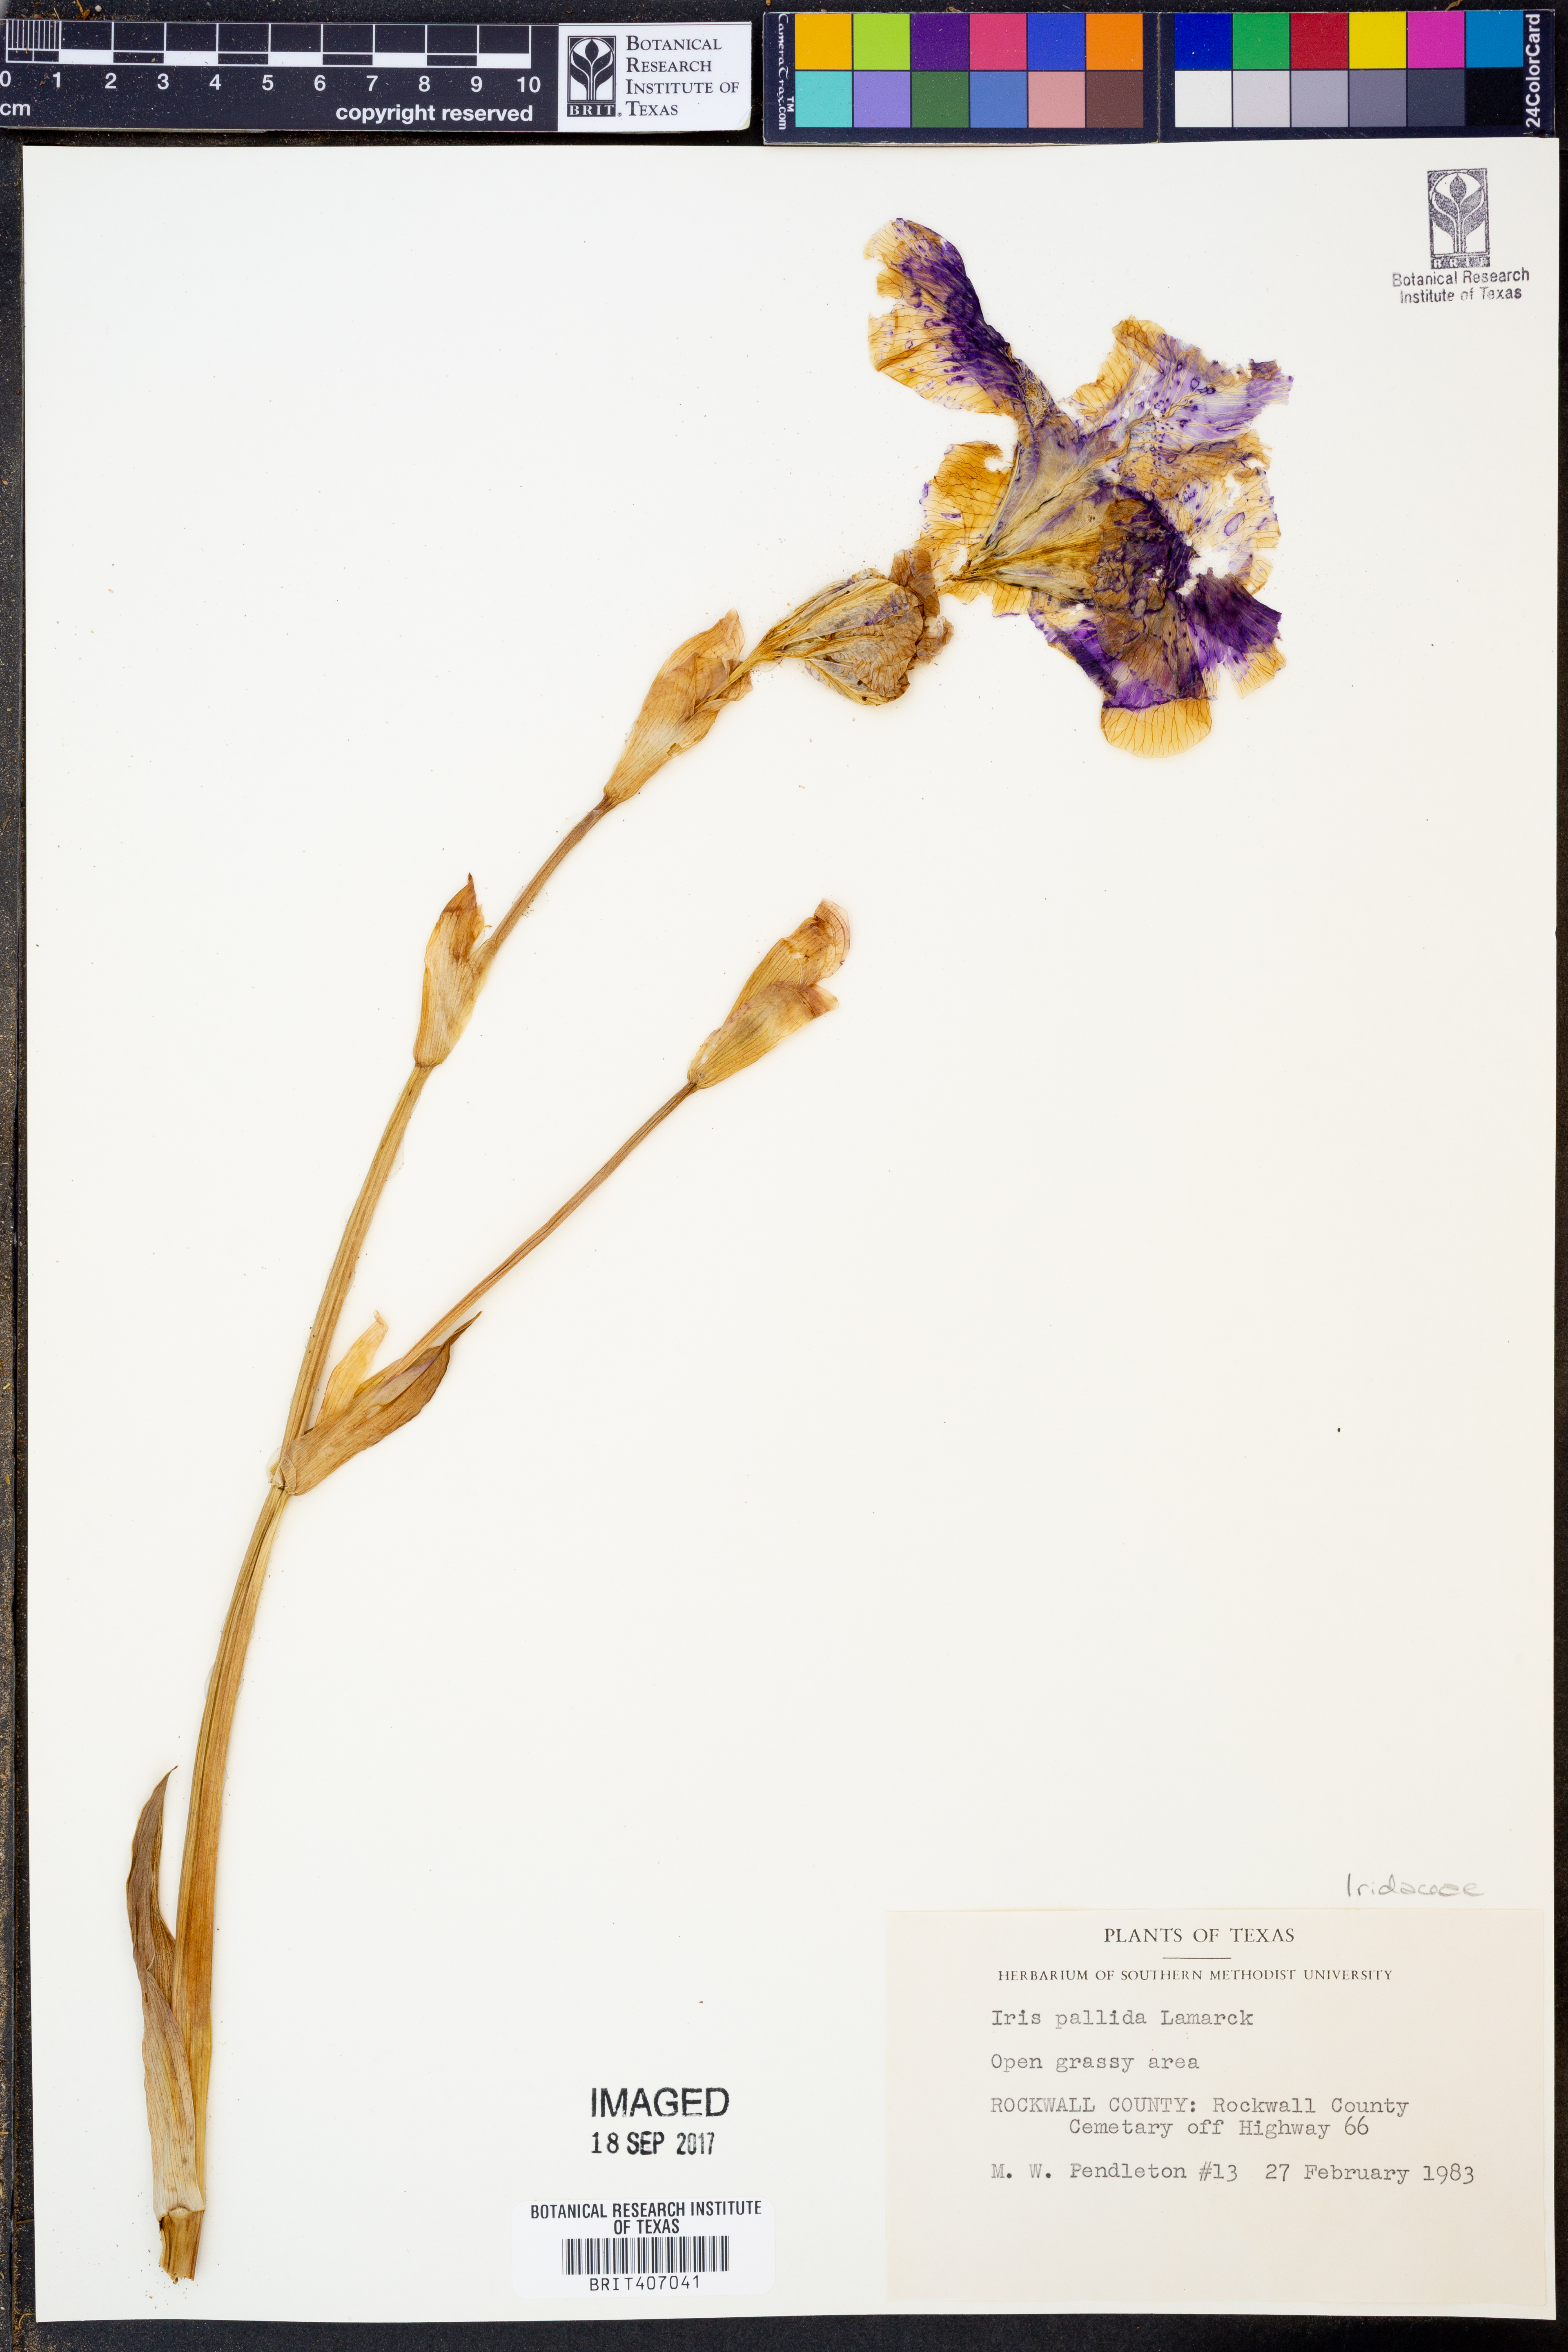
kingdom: Plantae
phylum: Tracheophyta
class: Liliopsida
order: Asparagales
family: Iridaceae
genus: Iris
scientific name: Iris pallida
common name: Sweet iris
